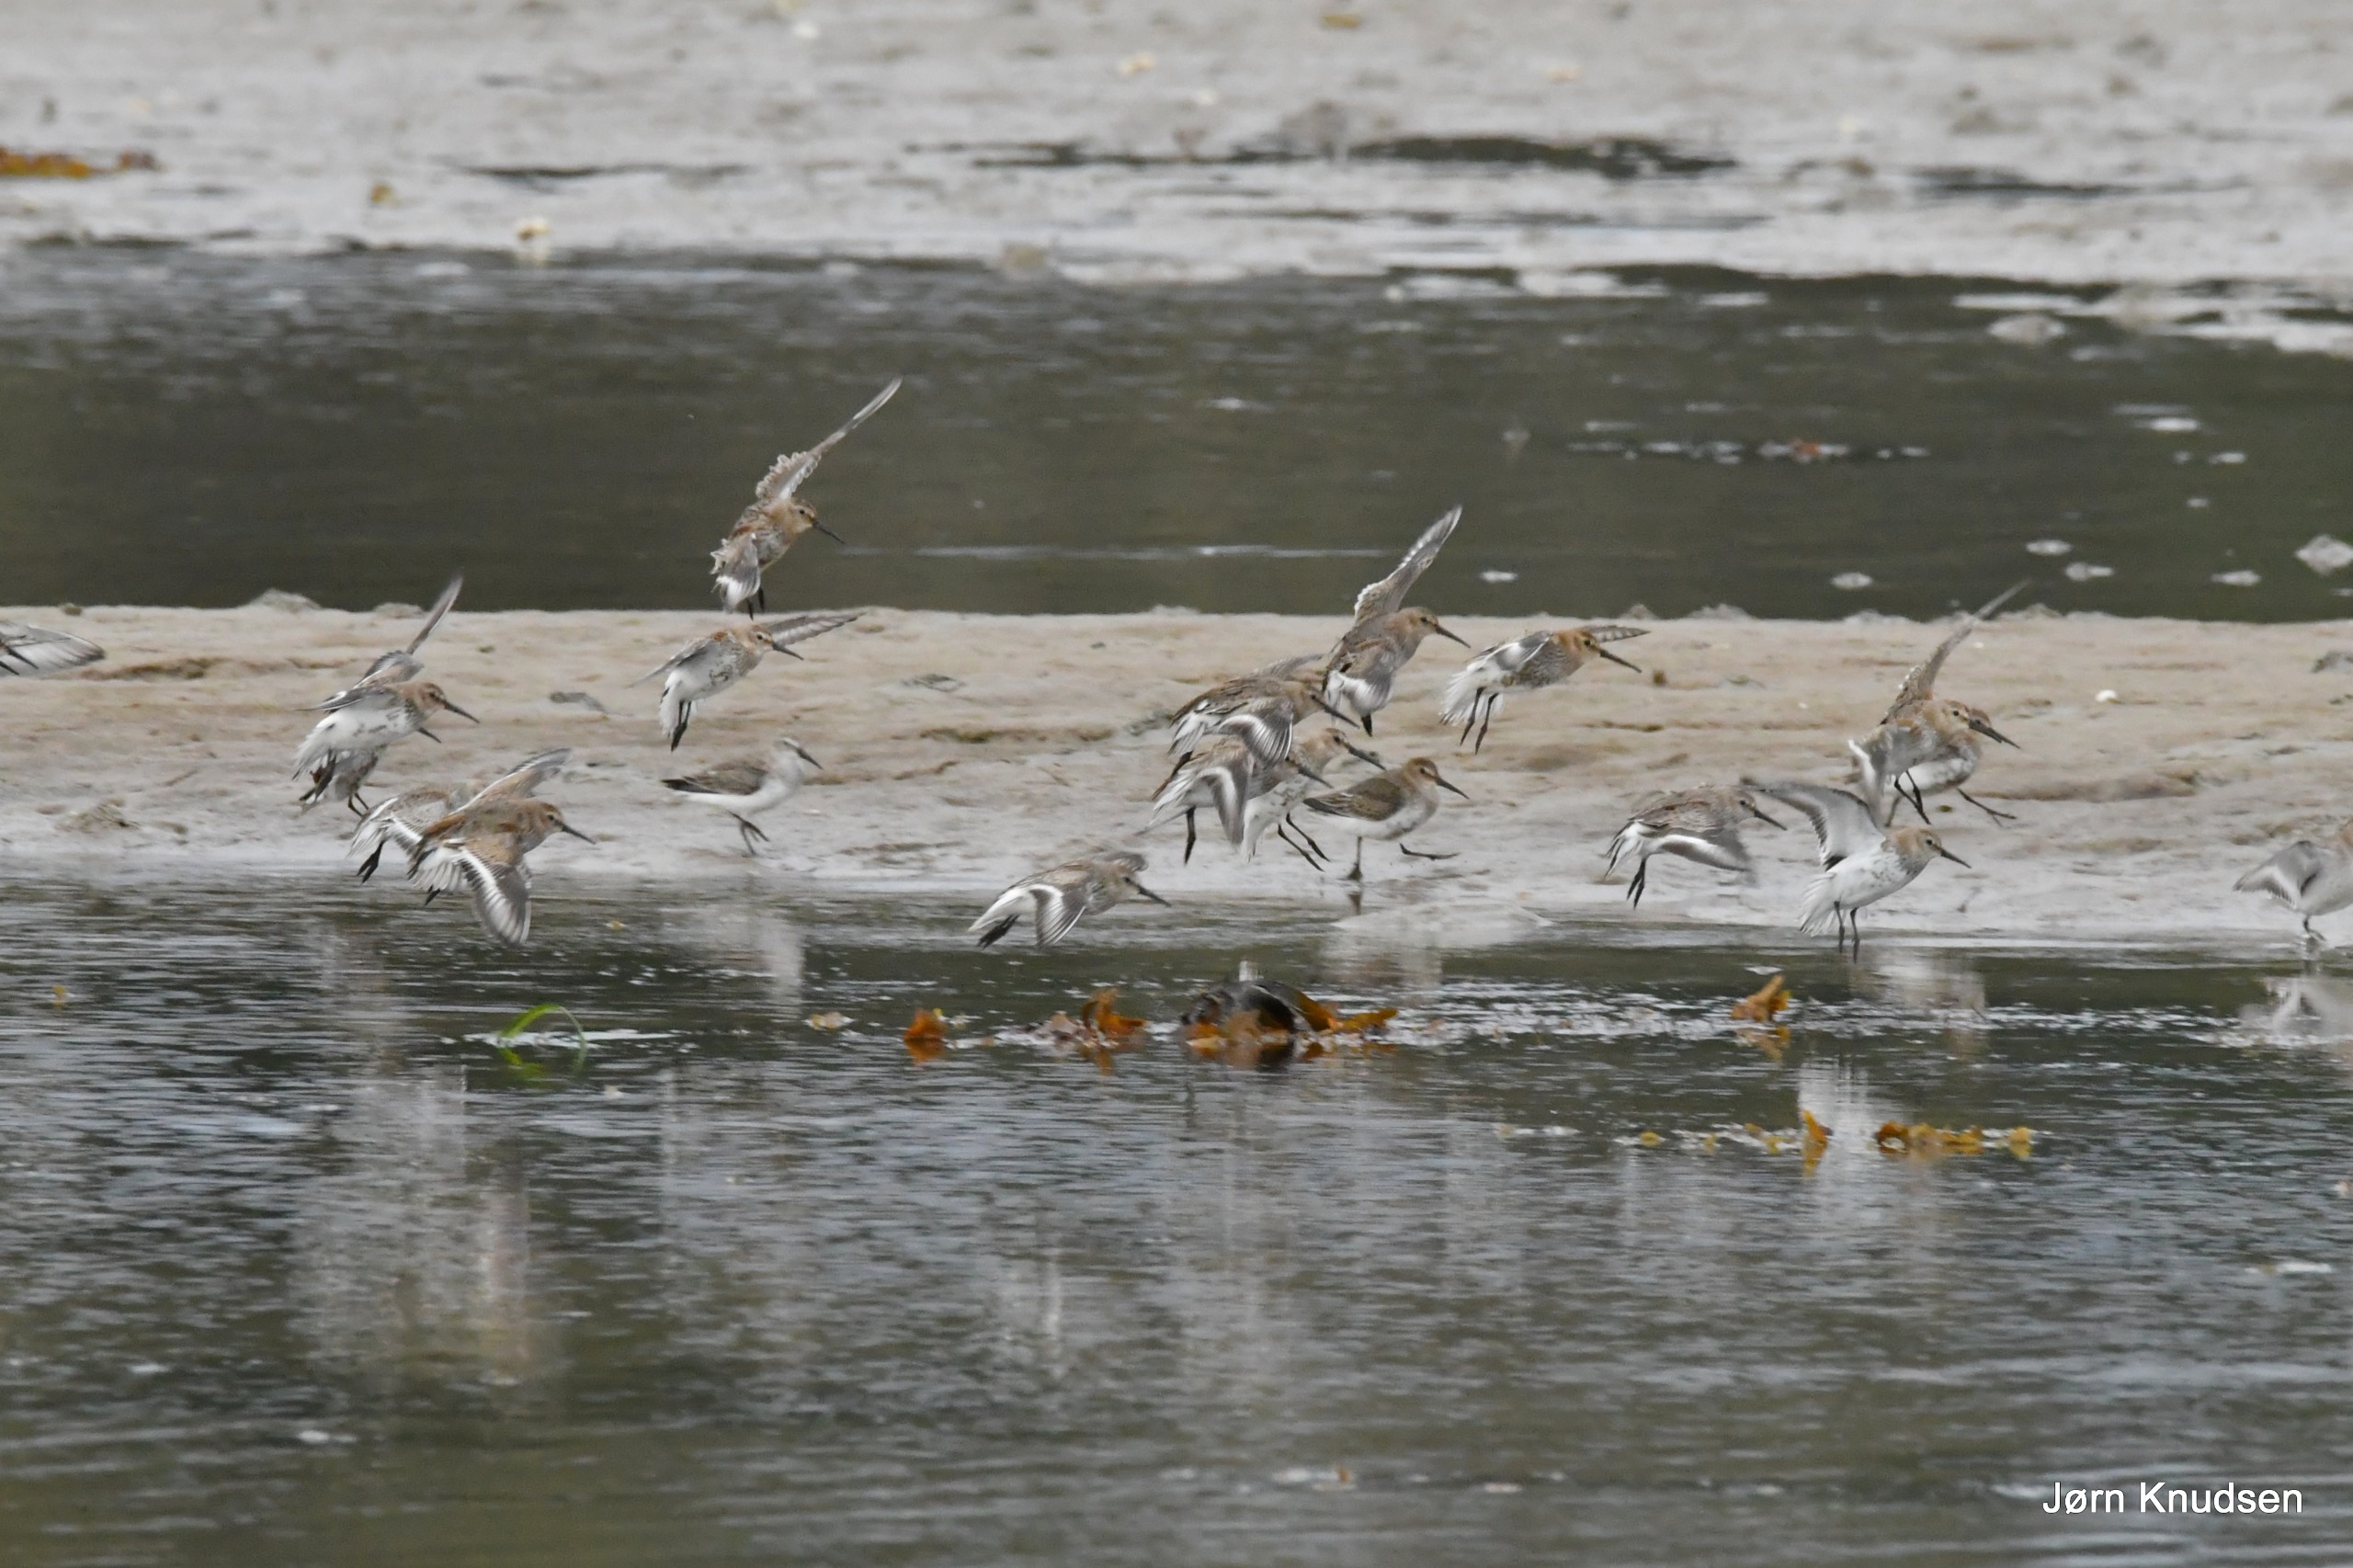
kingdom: Animalia
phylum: Chordata
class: Aves
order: Charadriiformes
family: Scolopacidae
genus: Calidris
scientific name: Calidris alpina
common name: Almindelig ryle
